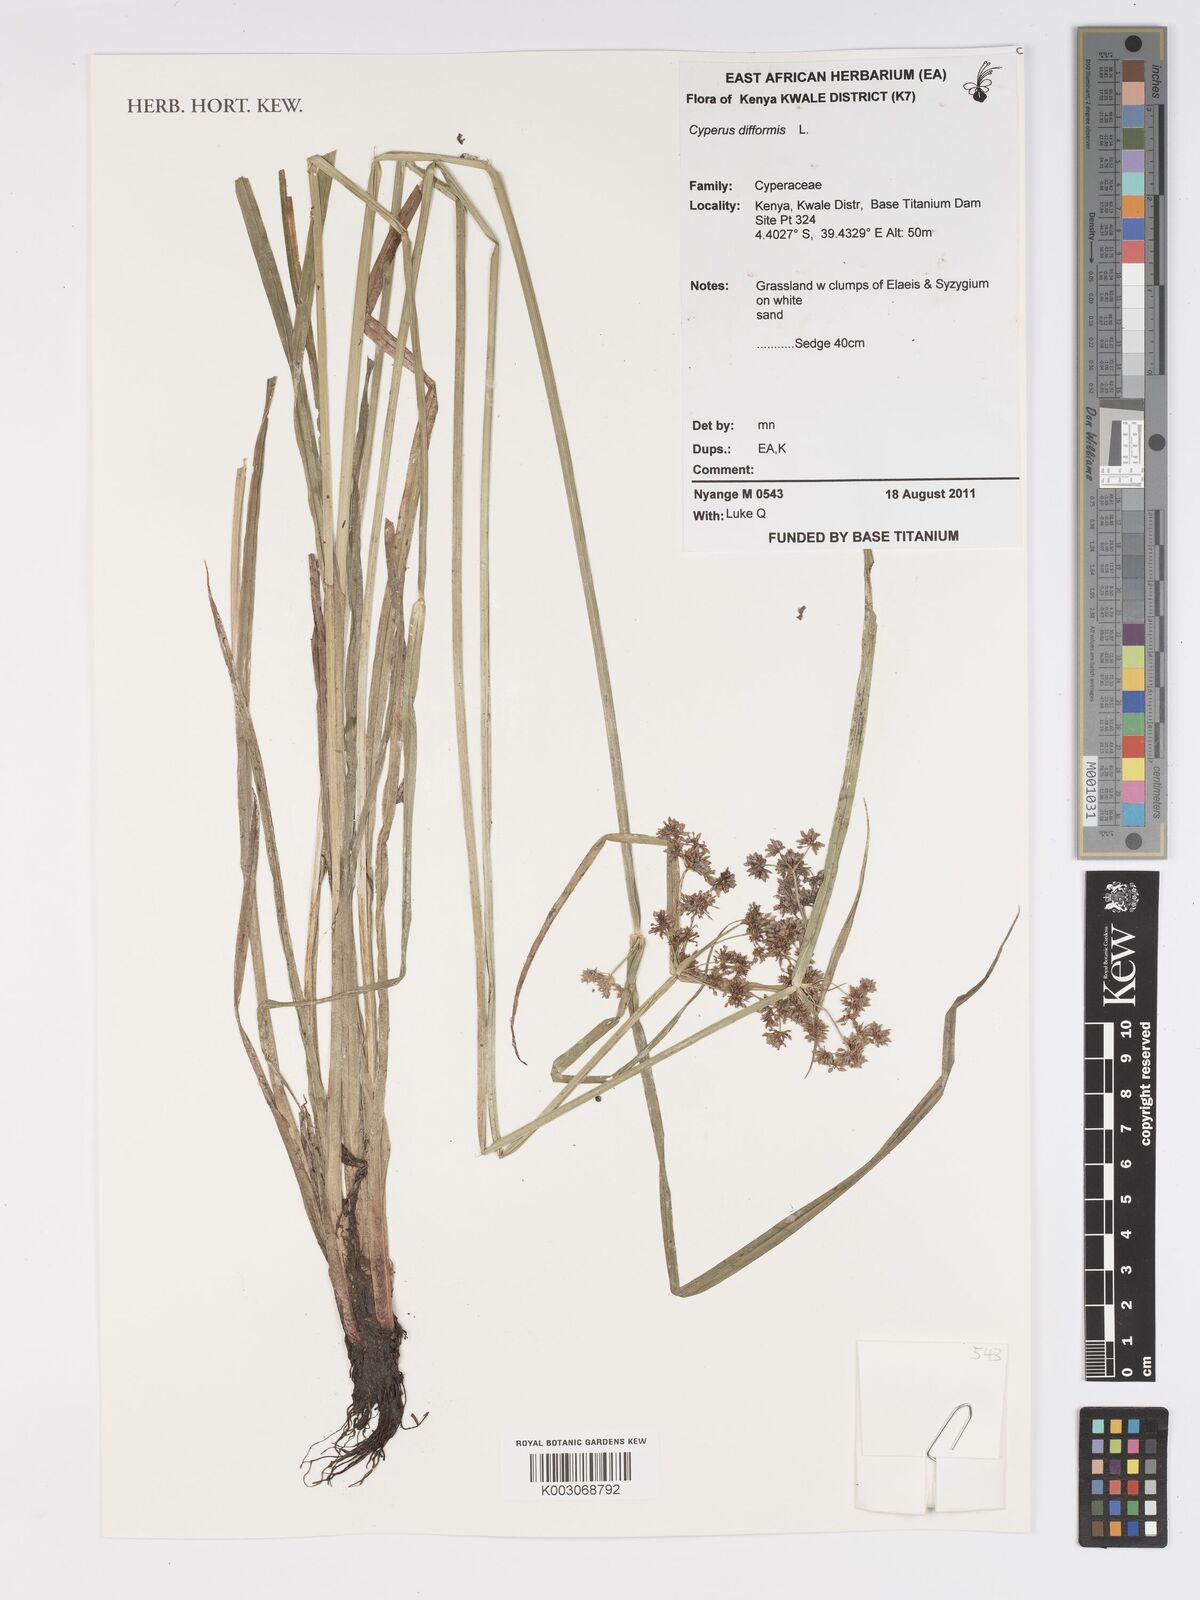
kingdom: Plantae
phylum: Tracheophyta
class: Liliopsida
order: Poales
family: Cyperaceae
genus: Cyperus
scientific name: Cyperus difformis
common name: Variable flatsedge
